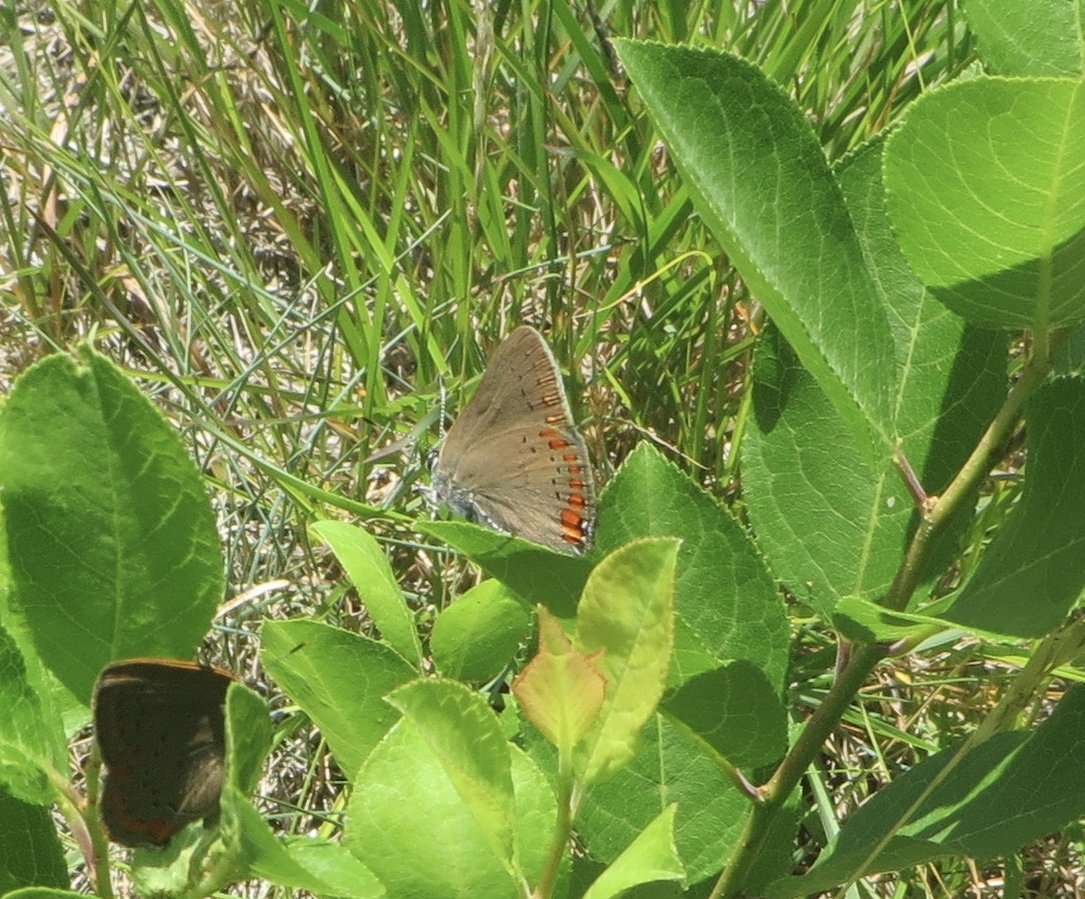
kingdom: Animalia
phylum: Arthropoda
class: Insecta
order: Lepidoptera
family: Lycaenidae
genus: Harkenclenus
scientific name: Harkenclenus titus
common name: Coral Hairstreak
